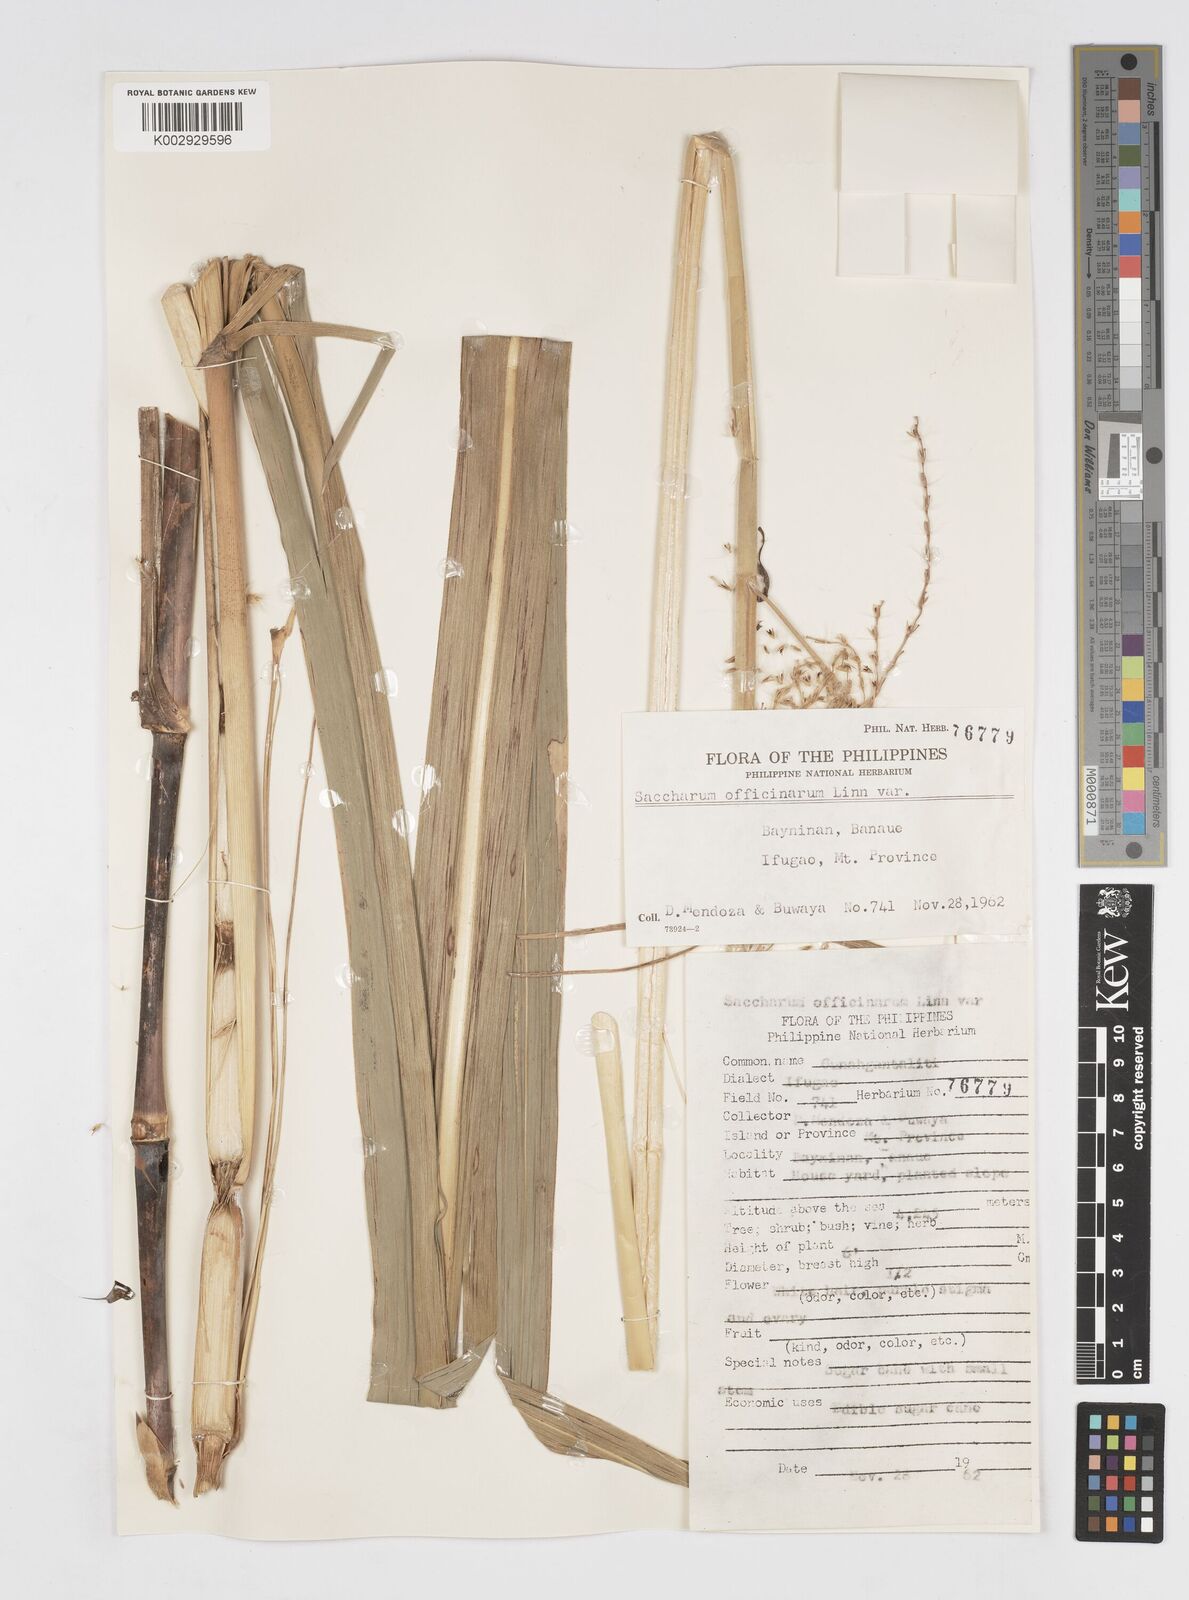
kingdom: Plantae
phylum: Tracheophyta
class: Liliopsida
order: Poales
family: Poaceae
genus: Saccharum
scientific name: Saccharum officinarum
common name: Sugarcane
